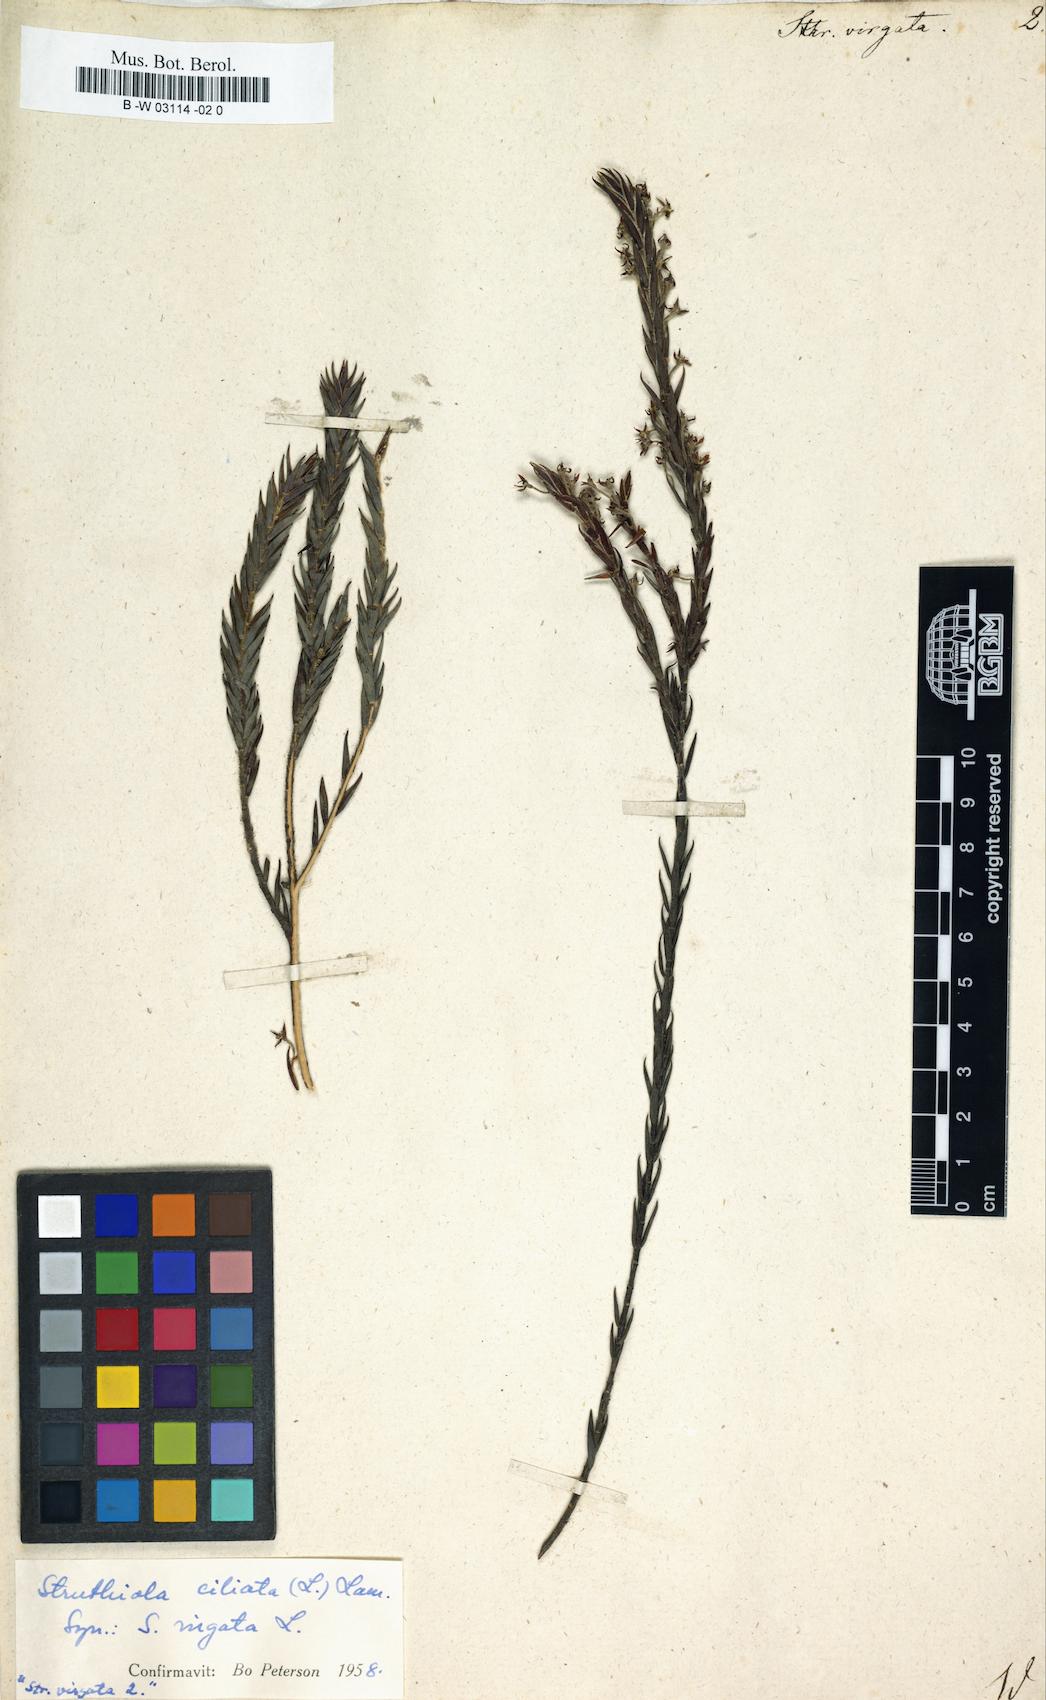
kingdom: Plantae
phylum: Tracheophyta
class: Magnoliopsida
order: Malvales
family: Thymelaeaceae
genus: Struthiola
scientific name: Struthiola ciliata
